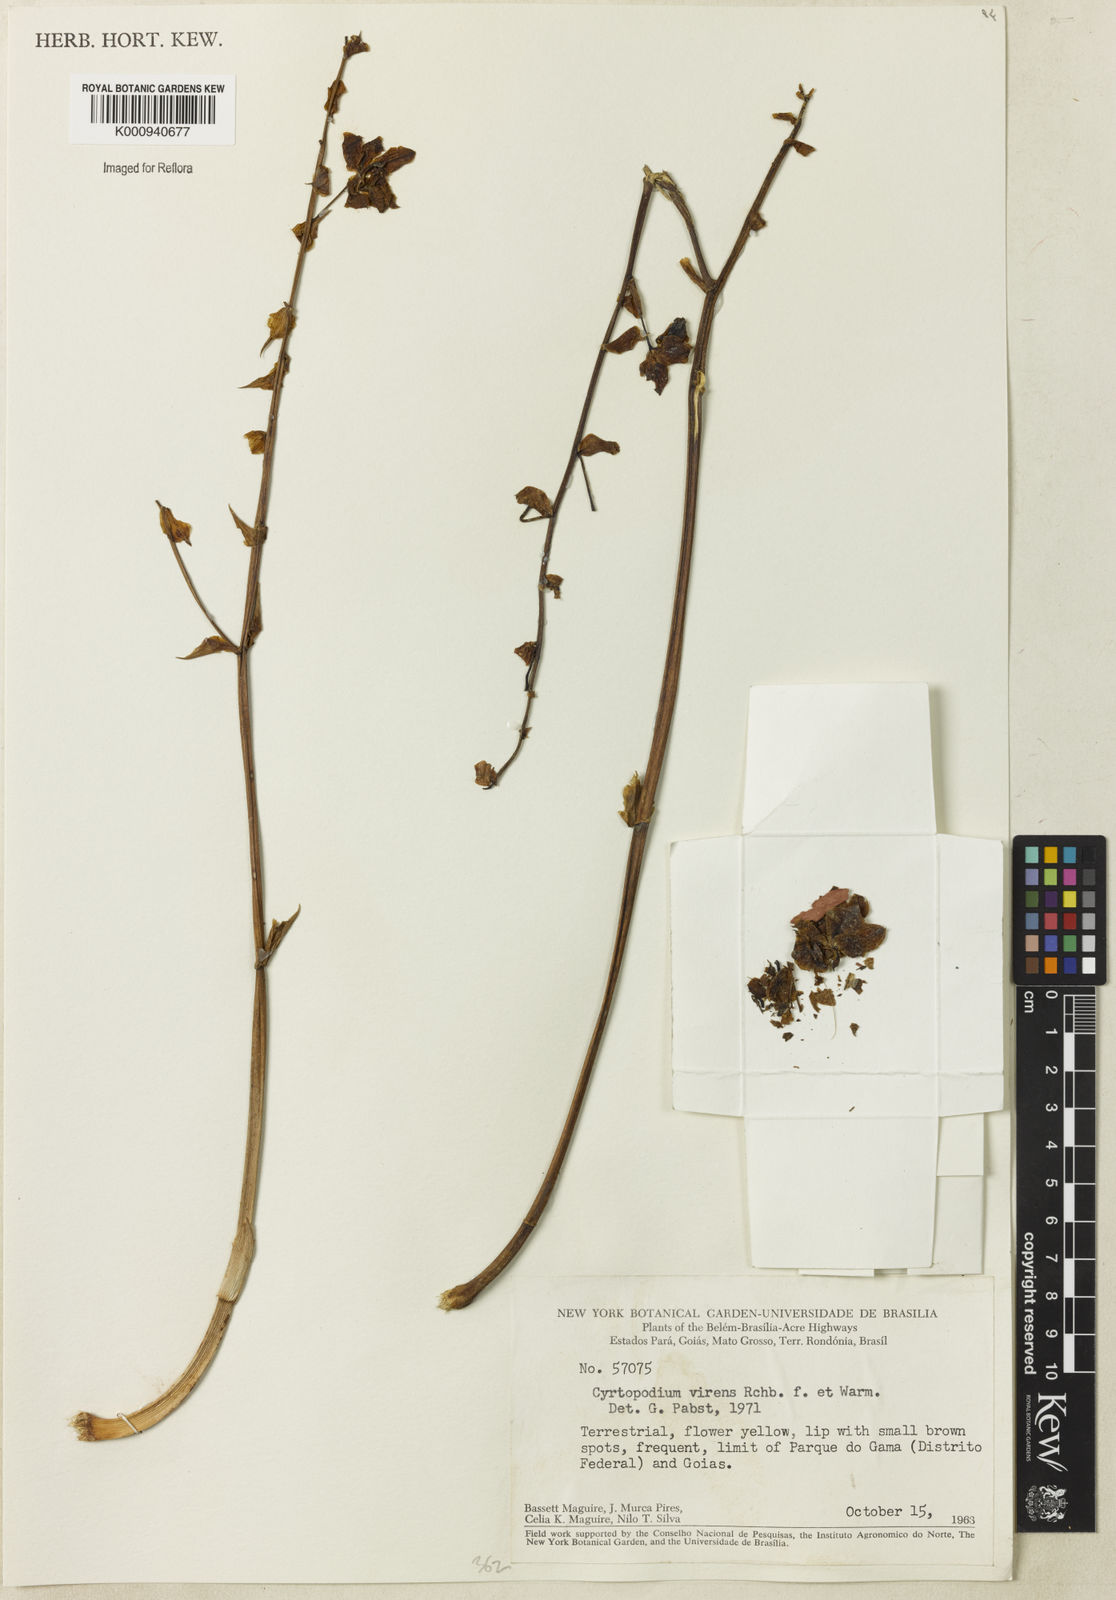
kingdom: Plantae
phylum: Tracheophyta
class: Liliopsida
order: Asparagales
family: Orchidaceae
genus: Cyrtopodium
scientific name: Cyrtopodium
